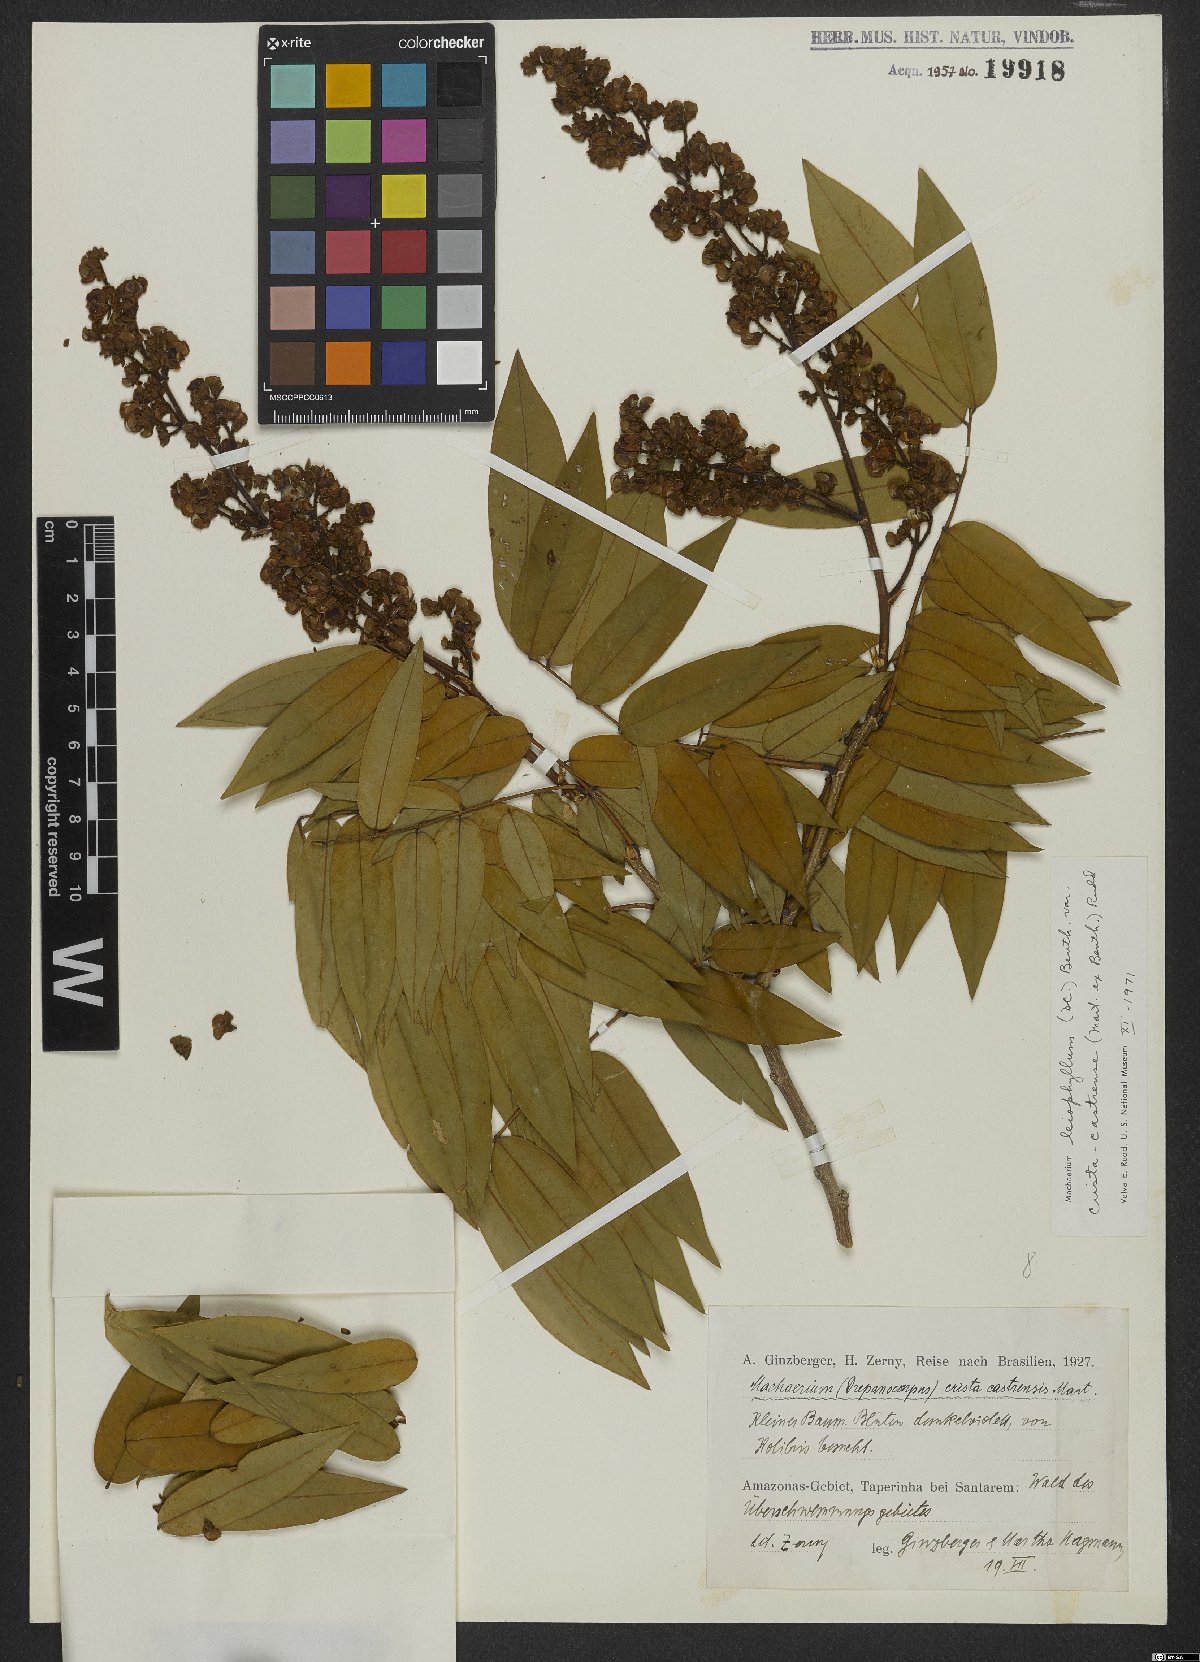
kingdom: Plantae
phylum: Tracheophyta
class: Magnoliopsida
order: Fabales
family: Fabaceae
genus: Machaerium
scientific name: Machaerium leiophyllum
